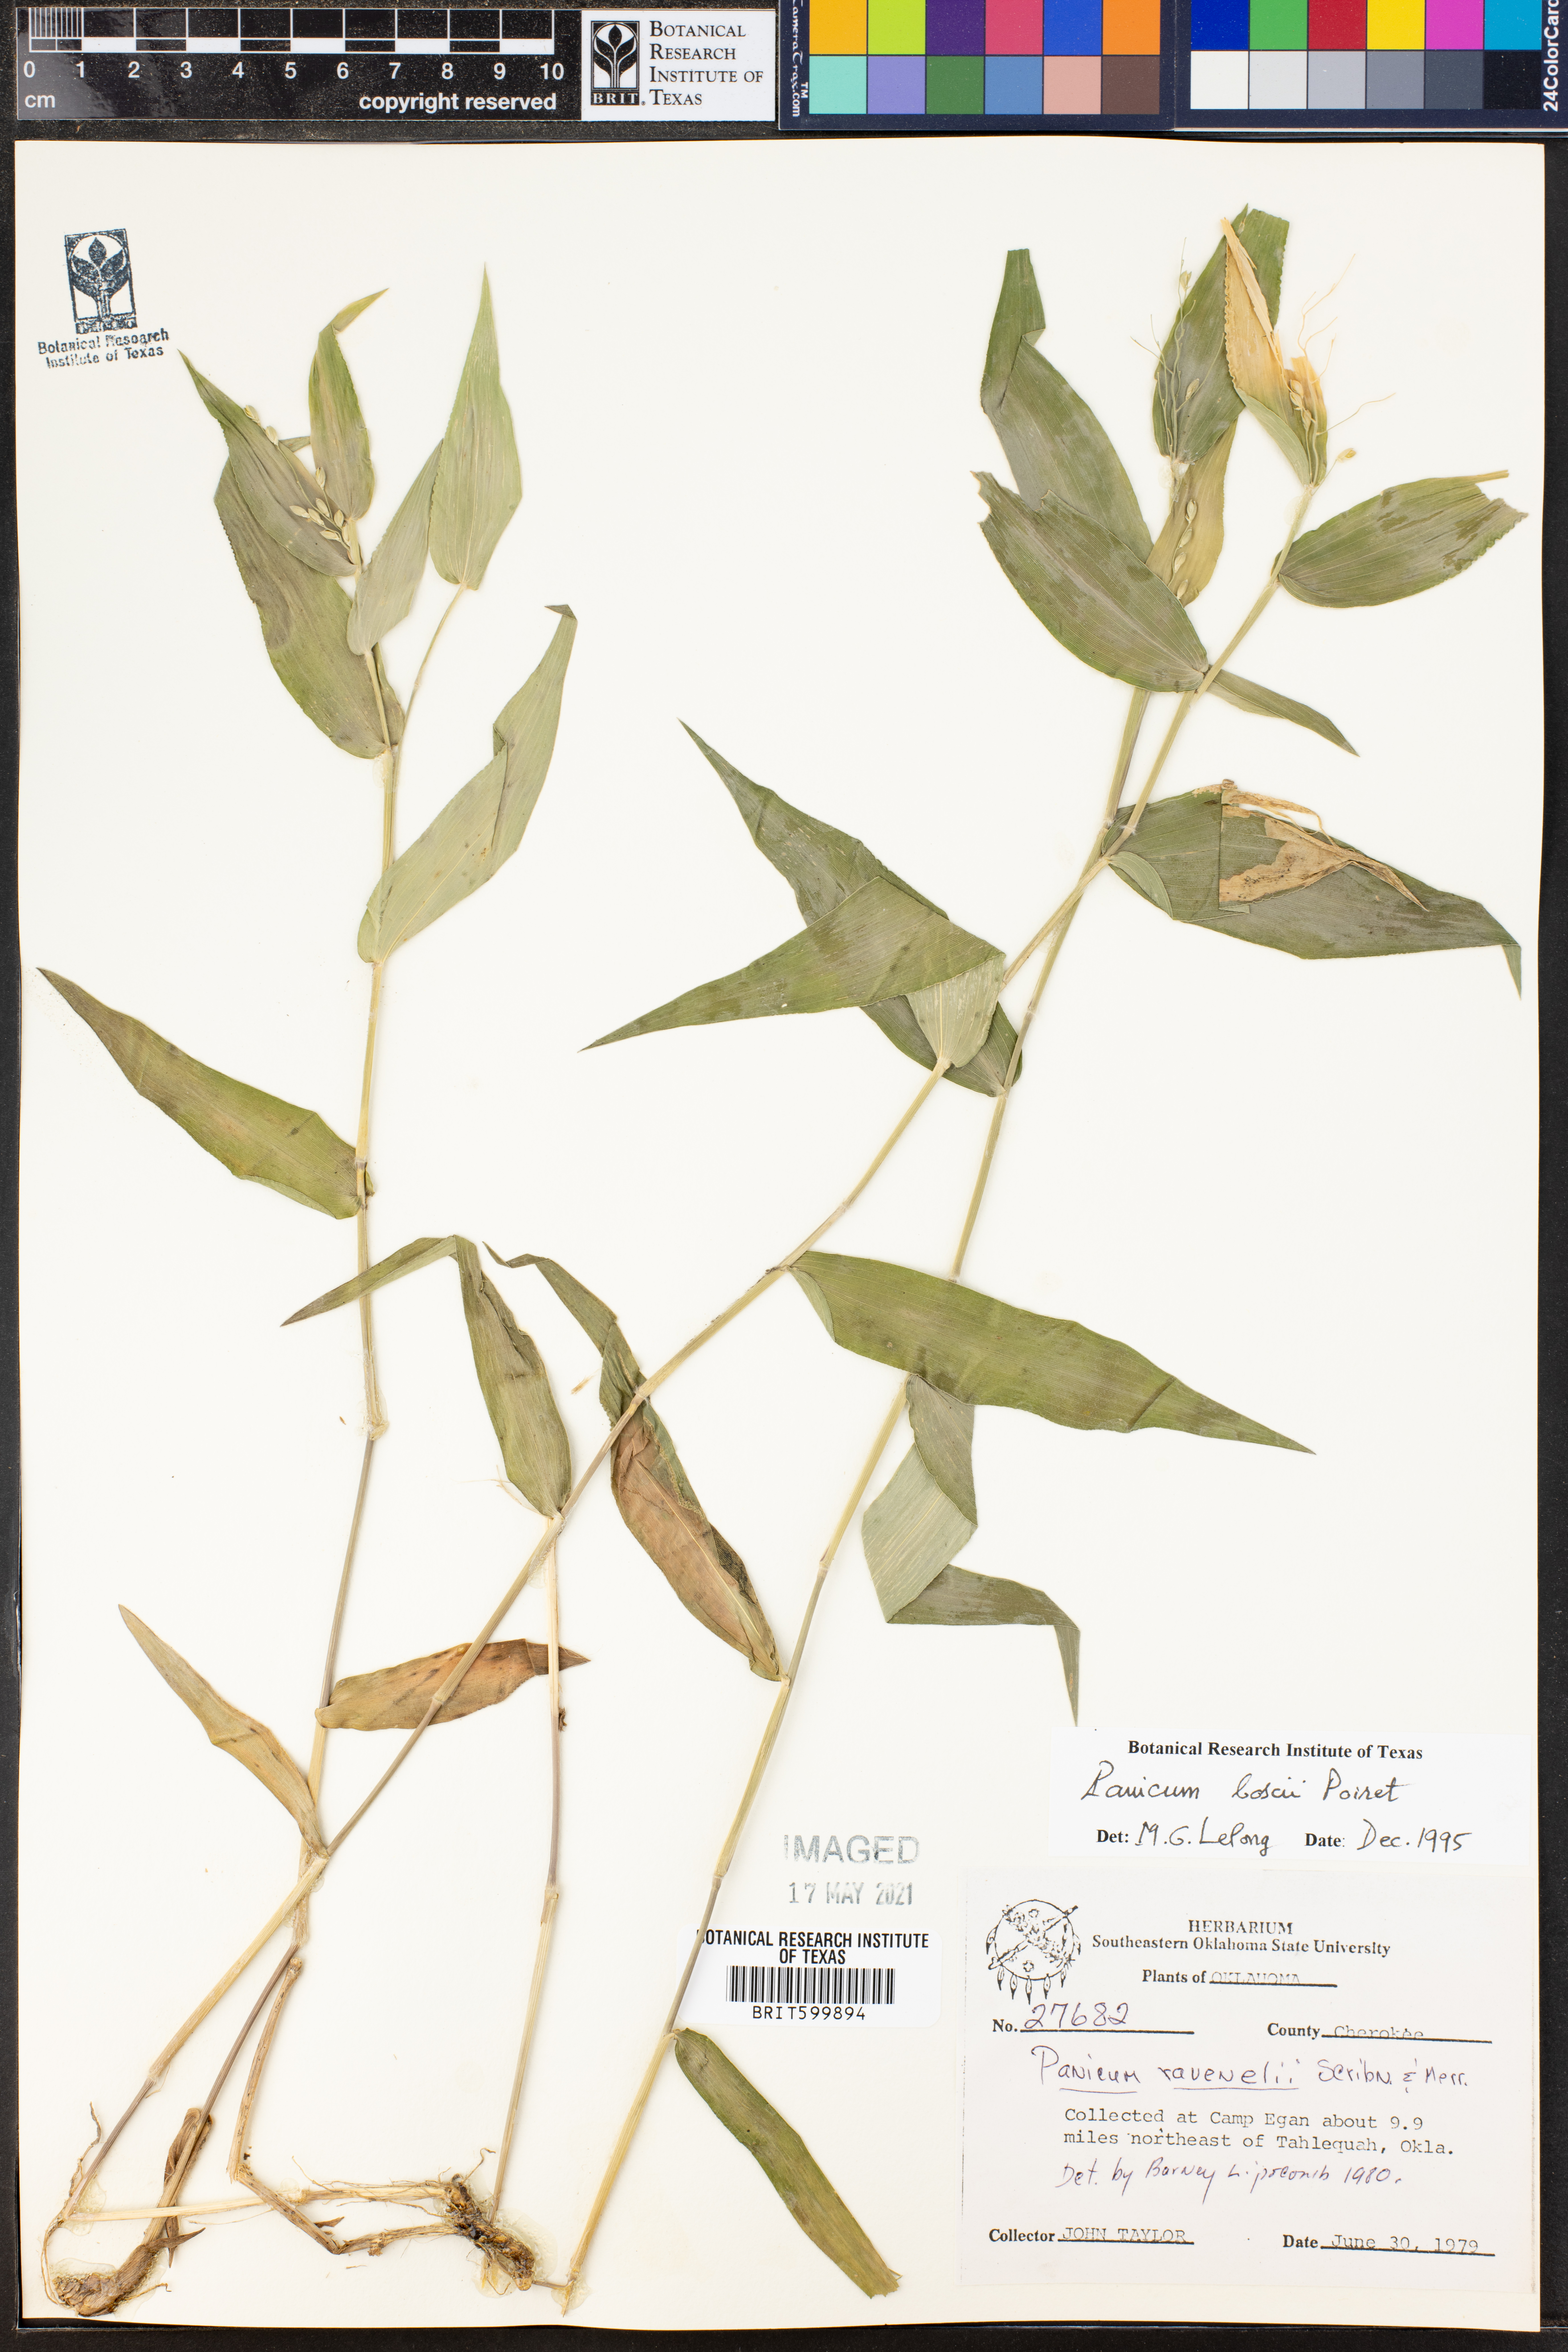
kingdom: Plantae
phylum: Tracheophyta
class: Liliopsida
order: Poales
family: Poaceae
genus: Dichanthelium
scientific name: Dichanthelium boscii
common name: Bosc's panic grass
